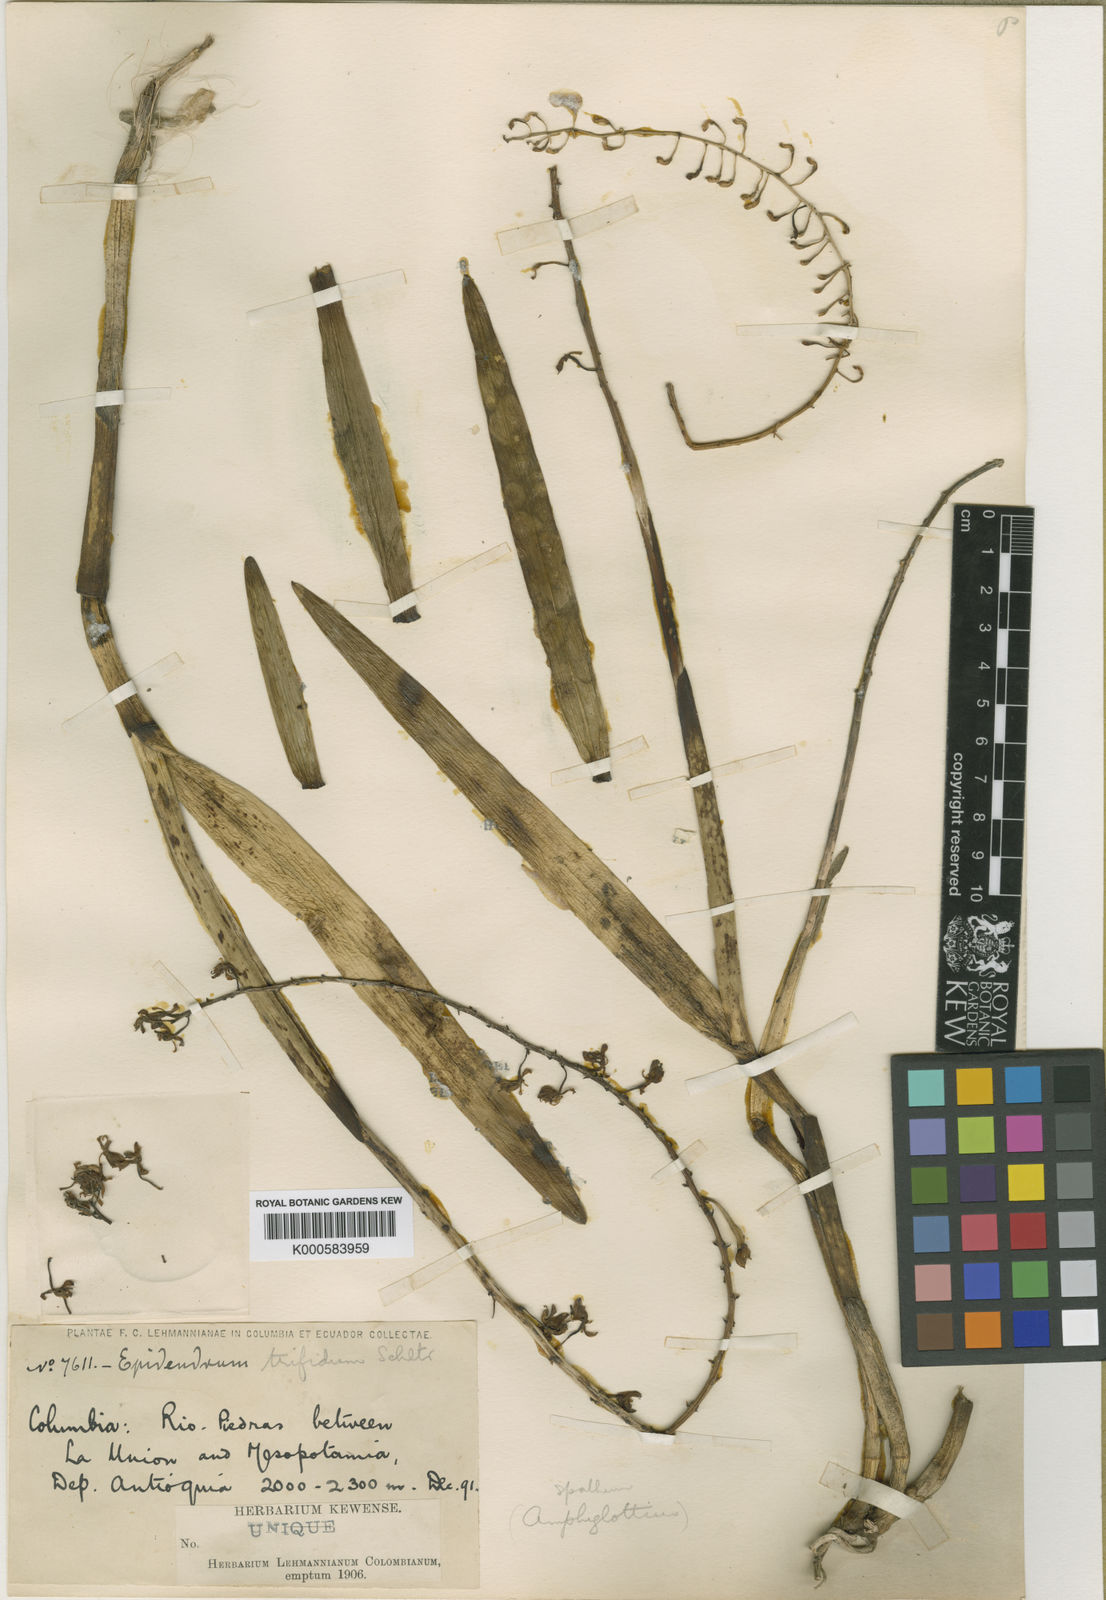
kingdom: Plantae
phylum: Tracheophyta
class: Liliopsida
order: Asparagales
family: Orchidaceae
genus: Epidendrum
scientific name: Epidendrum trifidum
